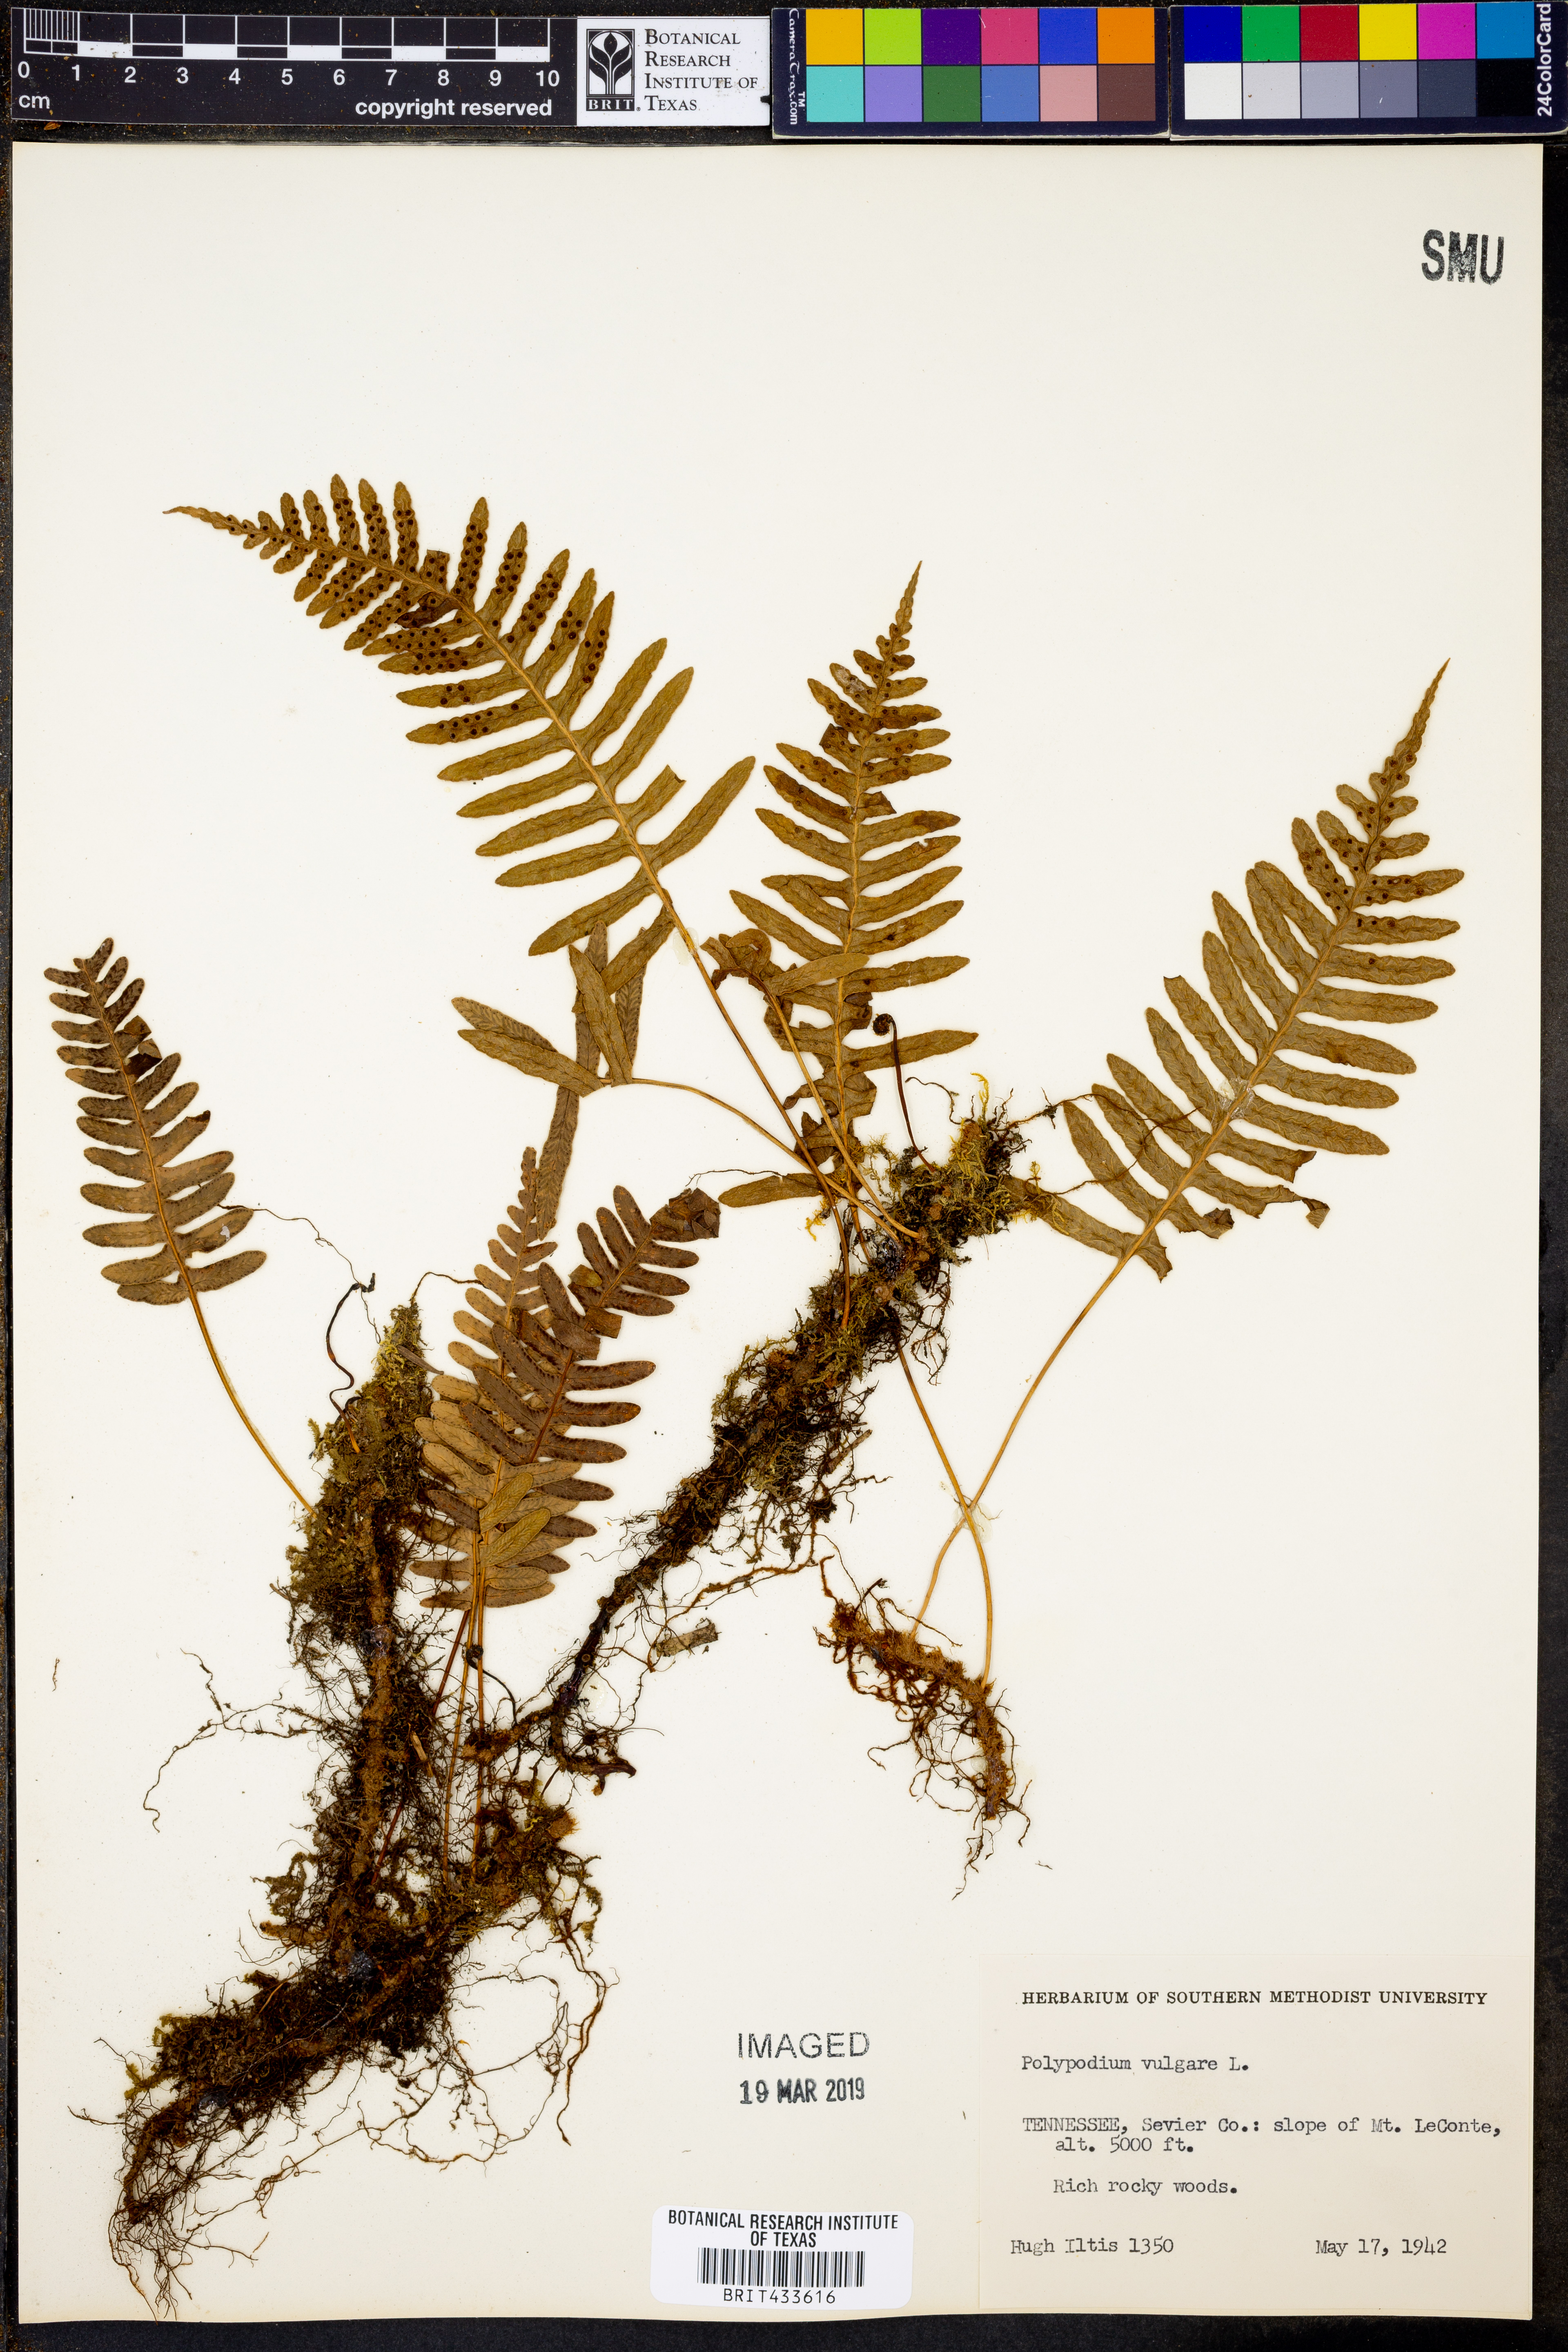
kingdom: Plantae
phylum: Tracheophyta
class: Polypodiopsida
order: Polypodiales
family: Polypodiaceae
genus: Polypodium
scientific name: Polypodium vulgare
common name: Common polypody
